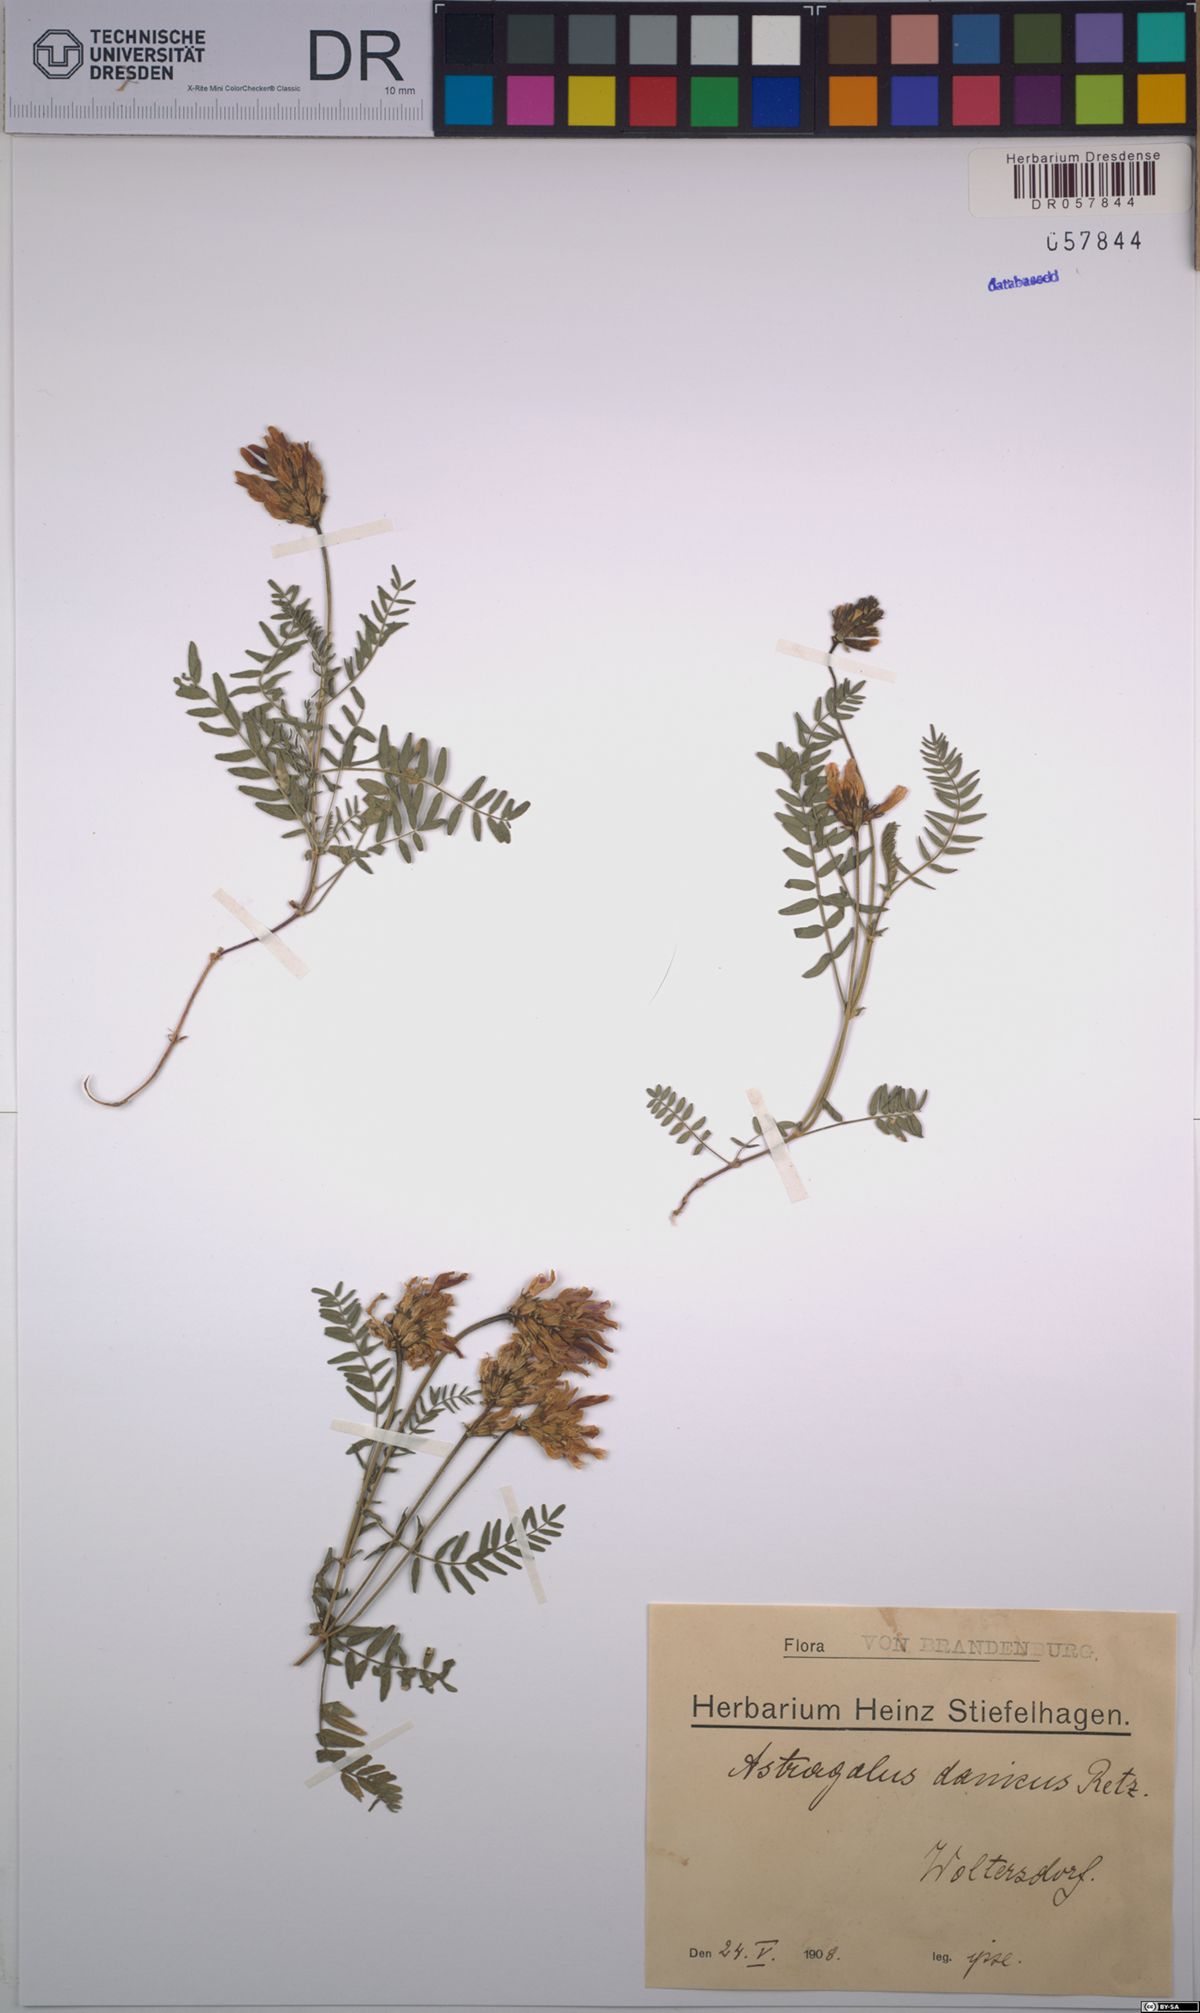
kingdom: Plantae
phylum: Tracheophyta
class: Magnoliopsida
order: Fabales
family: Fabaceae
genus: Astragalus
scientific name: Astragalus danicus
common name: Purple milk-vetch
